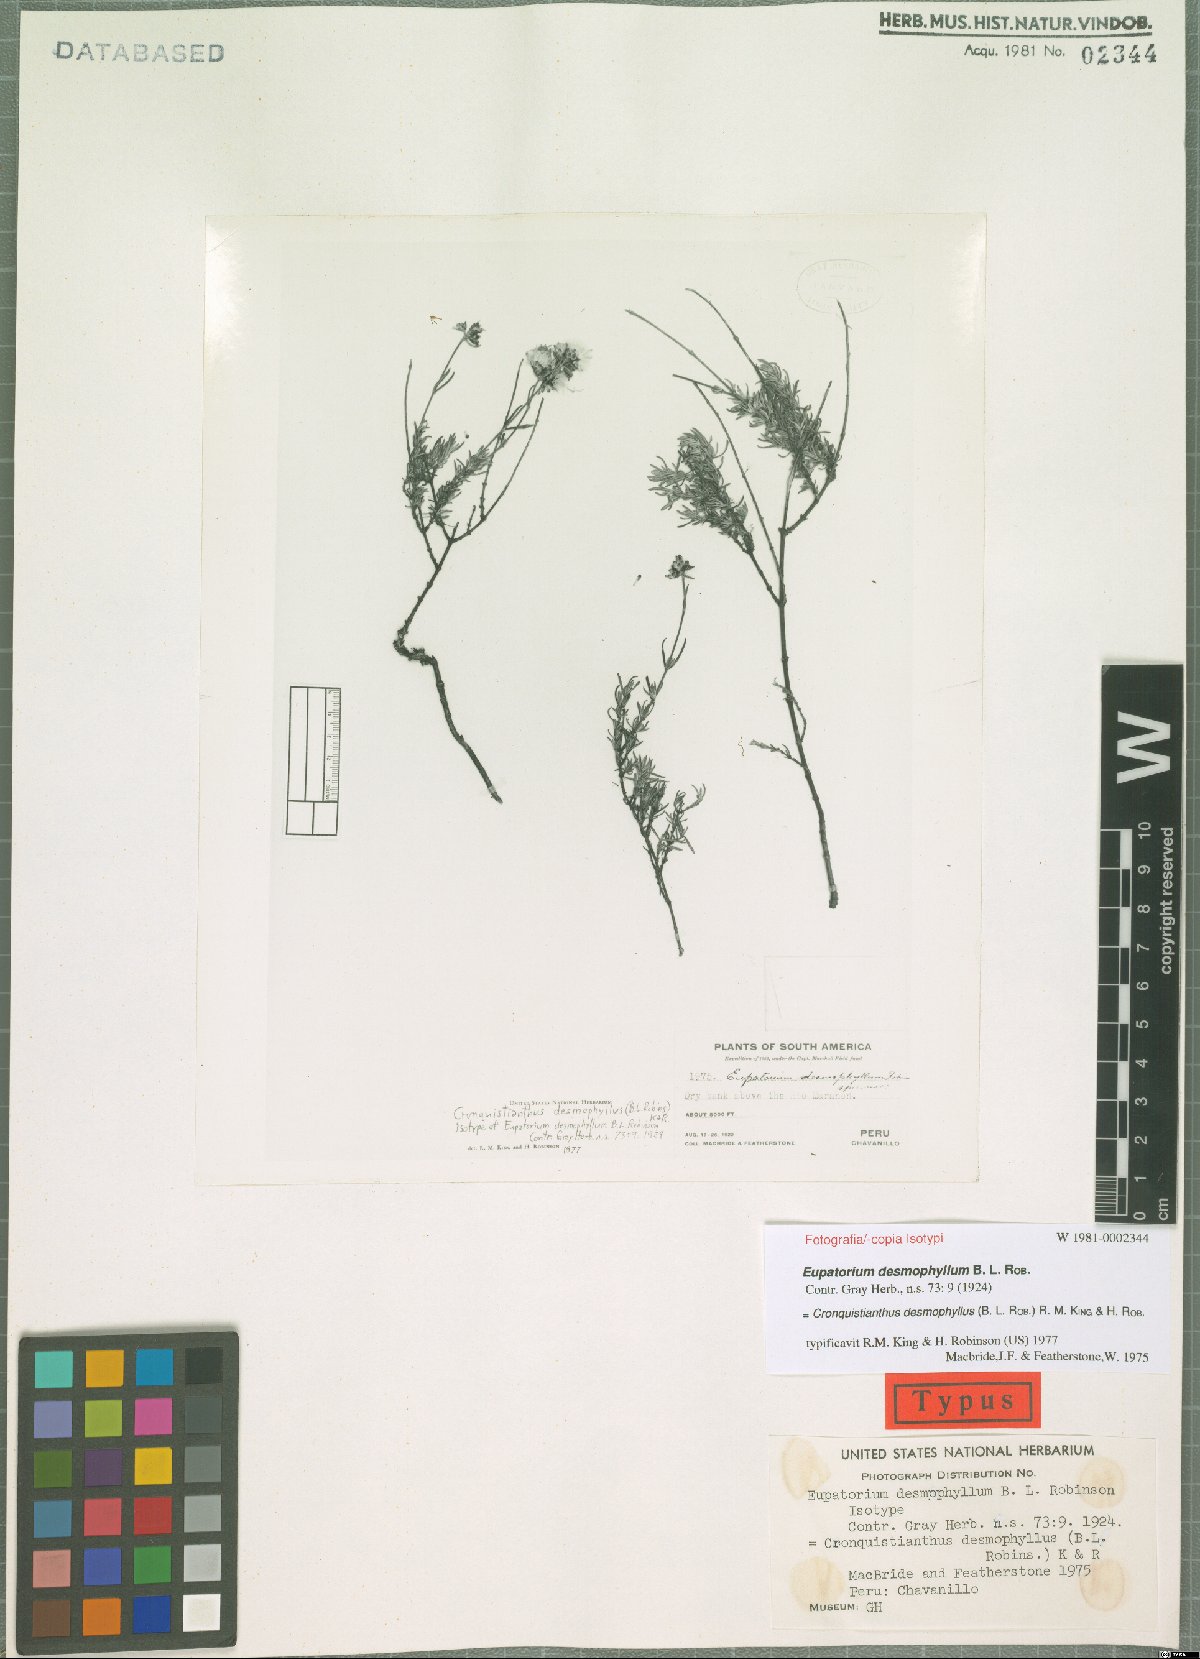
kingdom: Plantae
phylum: Tracheophyta
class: Magnoliopsida
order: Asterales
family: Asteraceae
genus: Cronquistianthus
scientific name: Cronquistianthus desmophyllus
